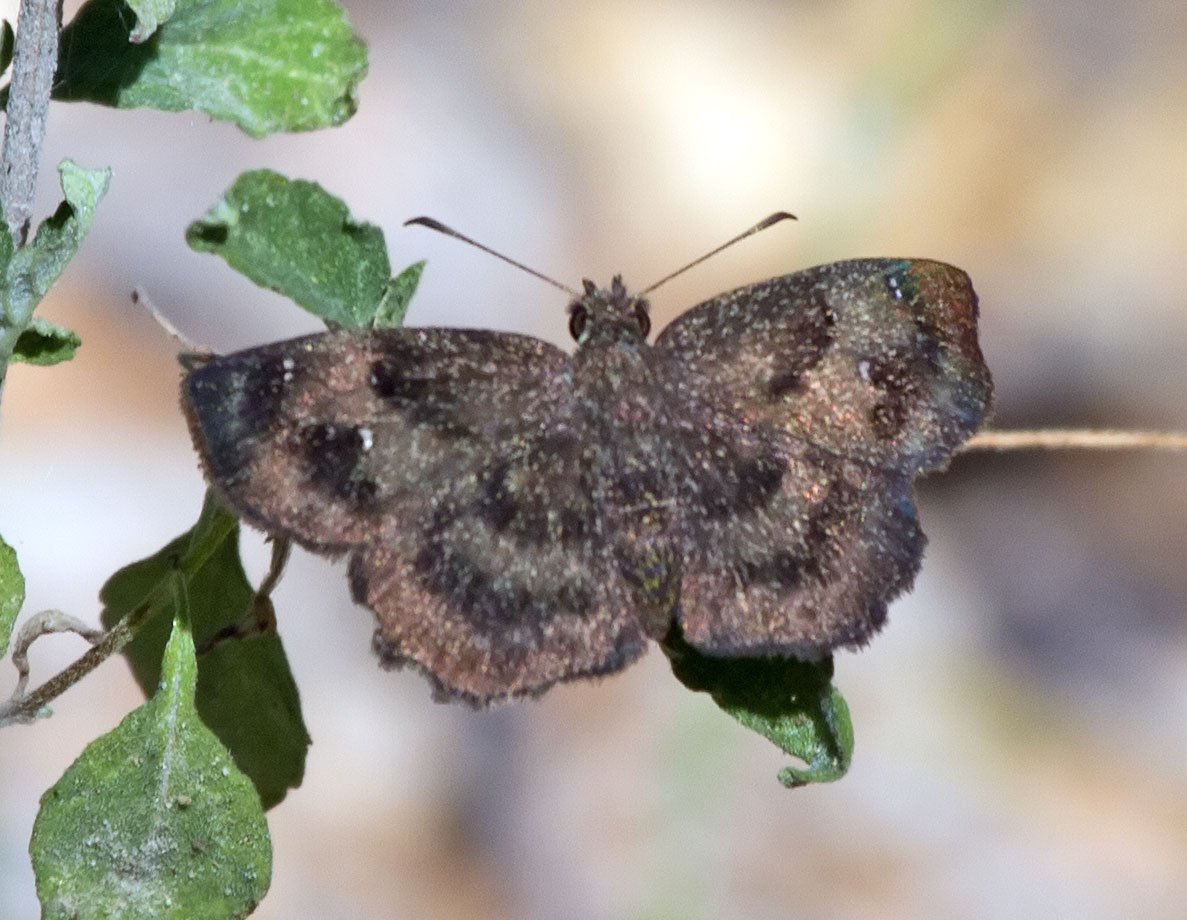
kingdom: Animalia
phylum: Arthropoda
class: Insecta
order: Lepidoptera
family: Hesperiidae
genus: Staphylus
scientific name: Staphylus mazans
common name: Mazans Scallopwing
